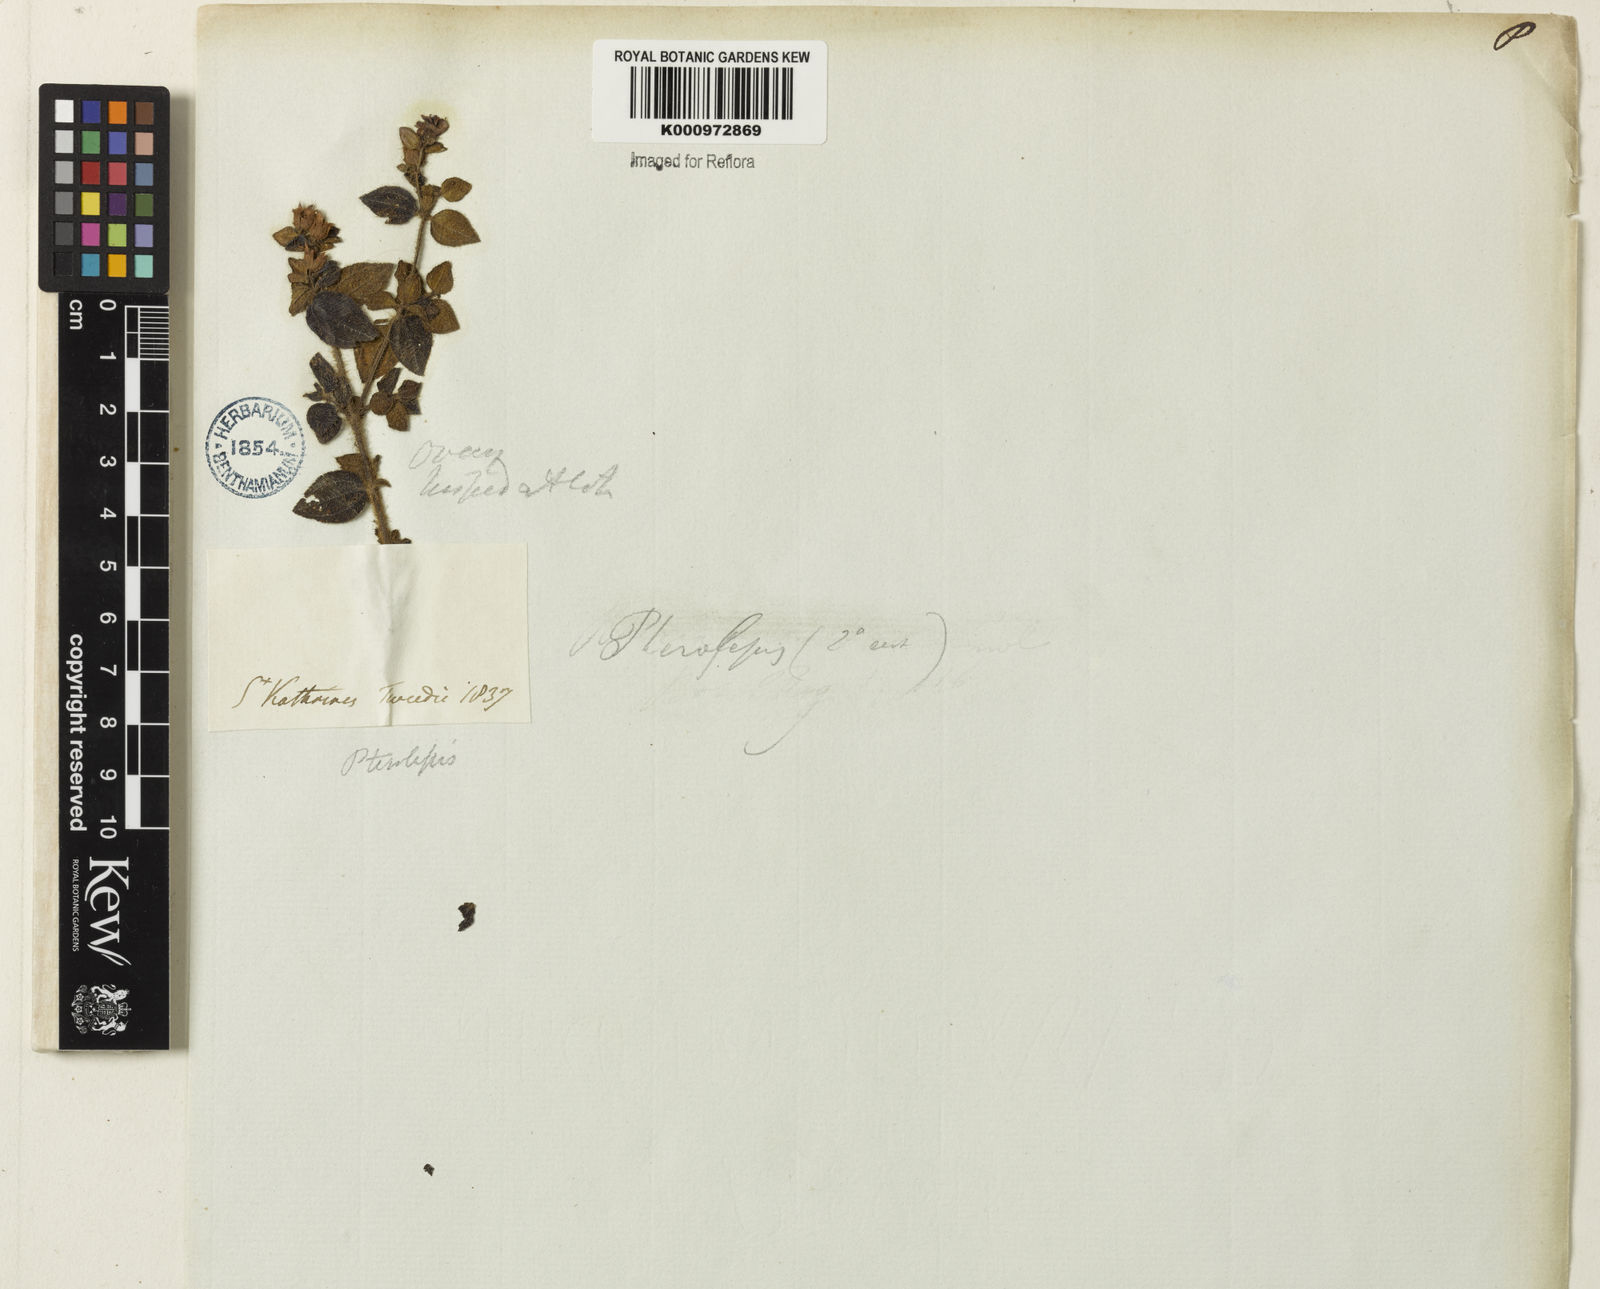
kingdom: Plantae
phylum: Tracheophyta
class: Magnoliopsida
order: Myrtales
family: Melastomataceae
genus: Chaetogastra
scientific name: Chaetogastra versicolor
